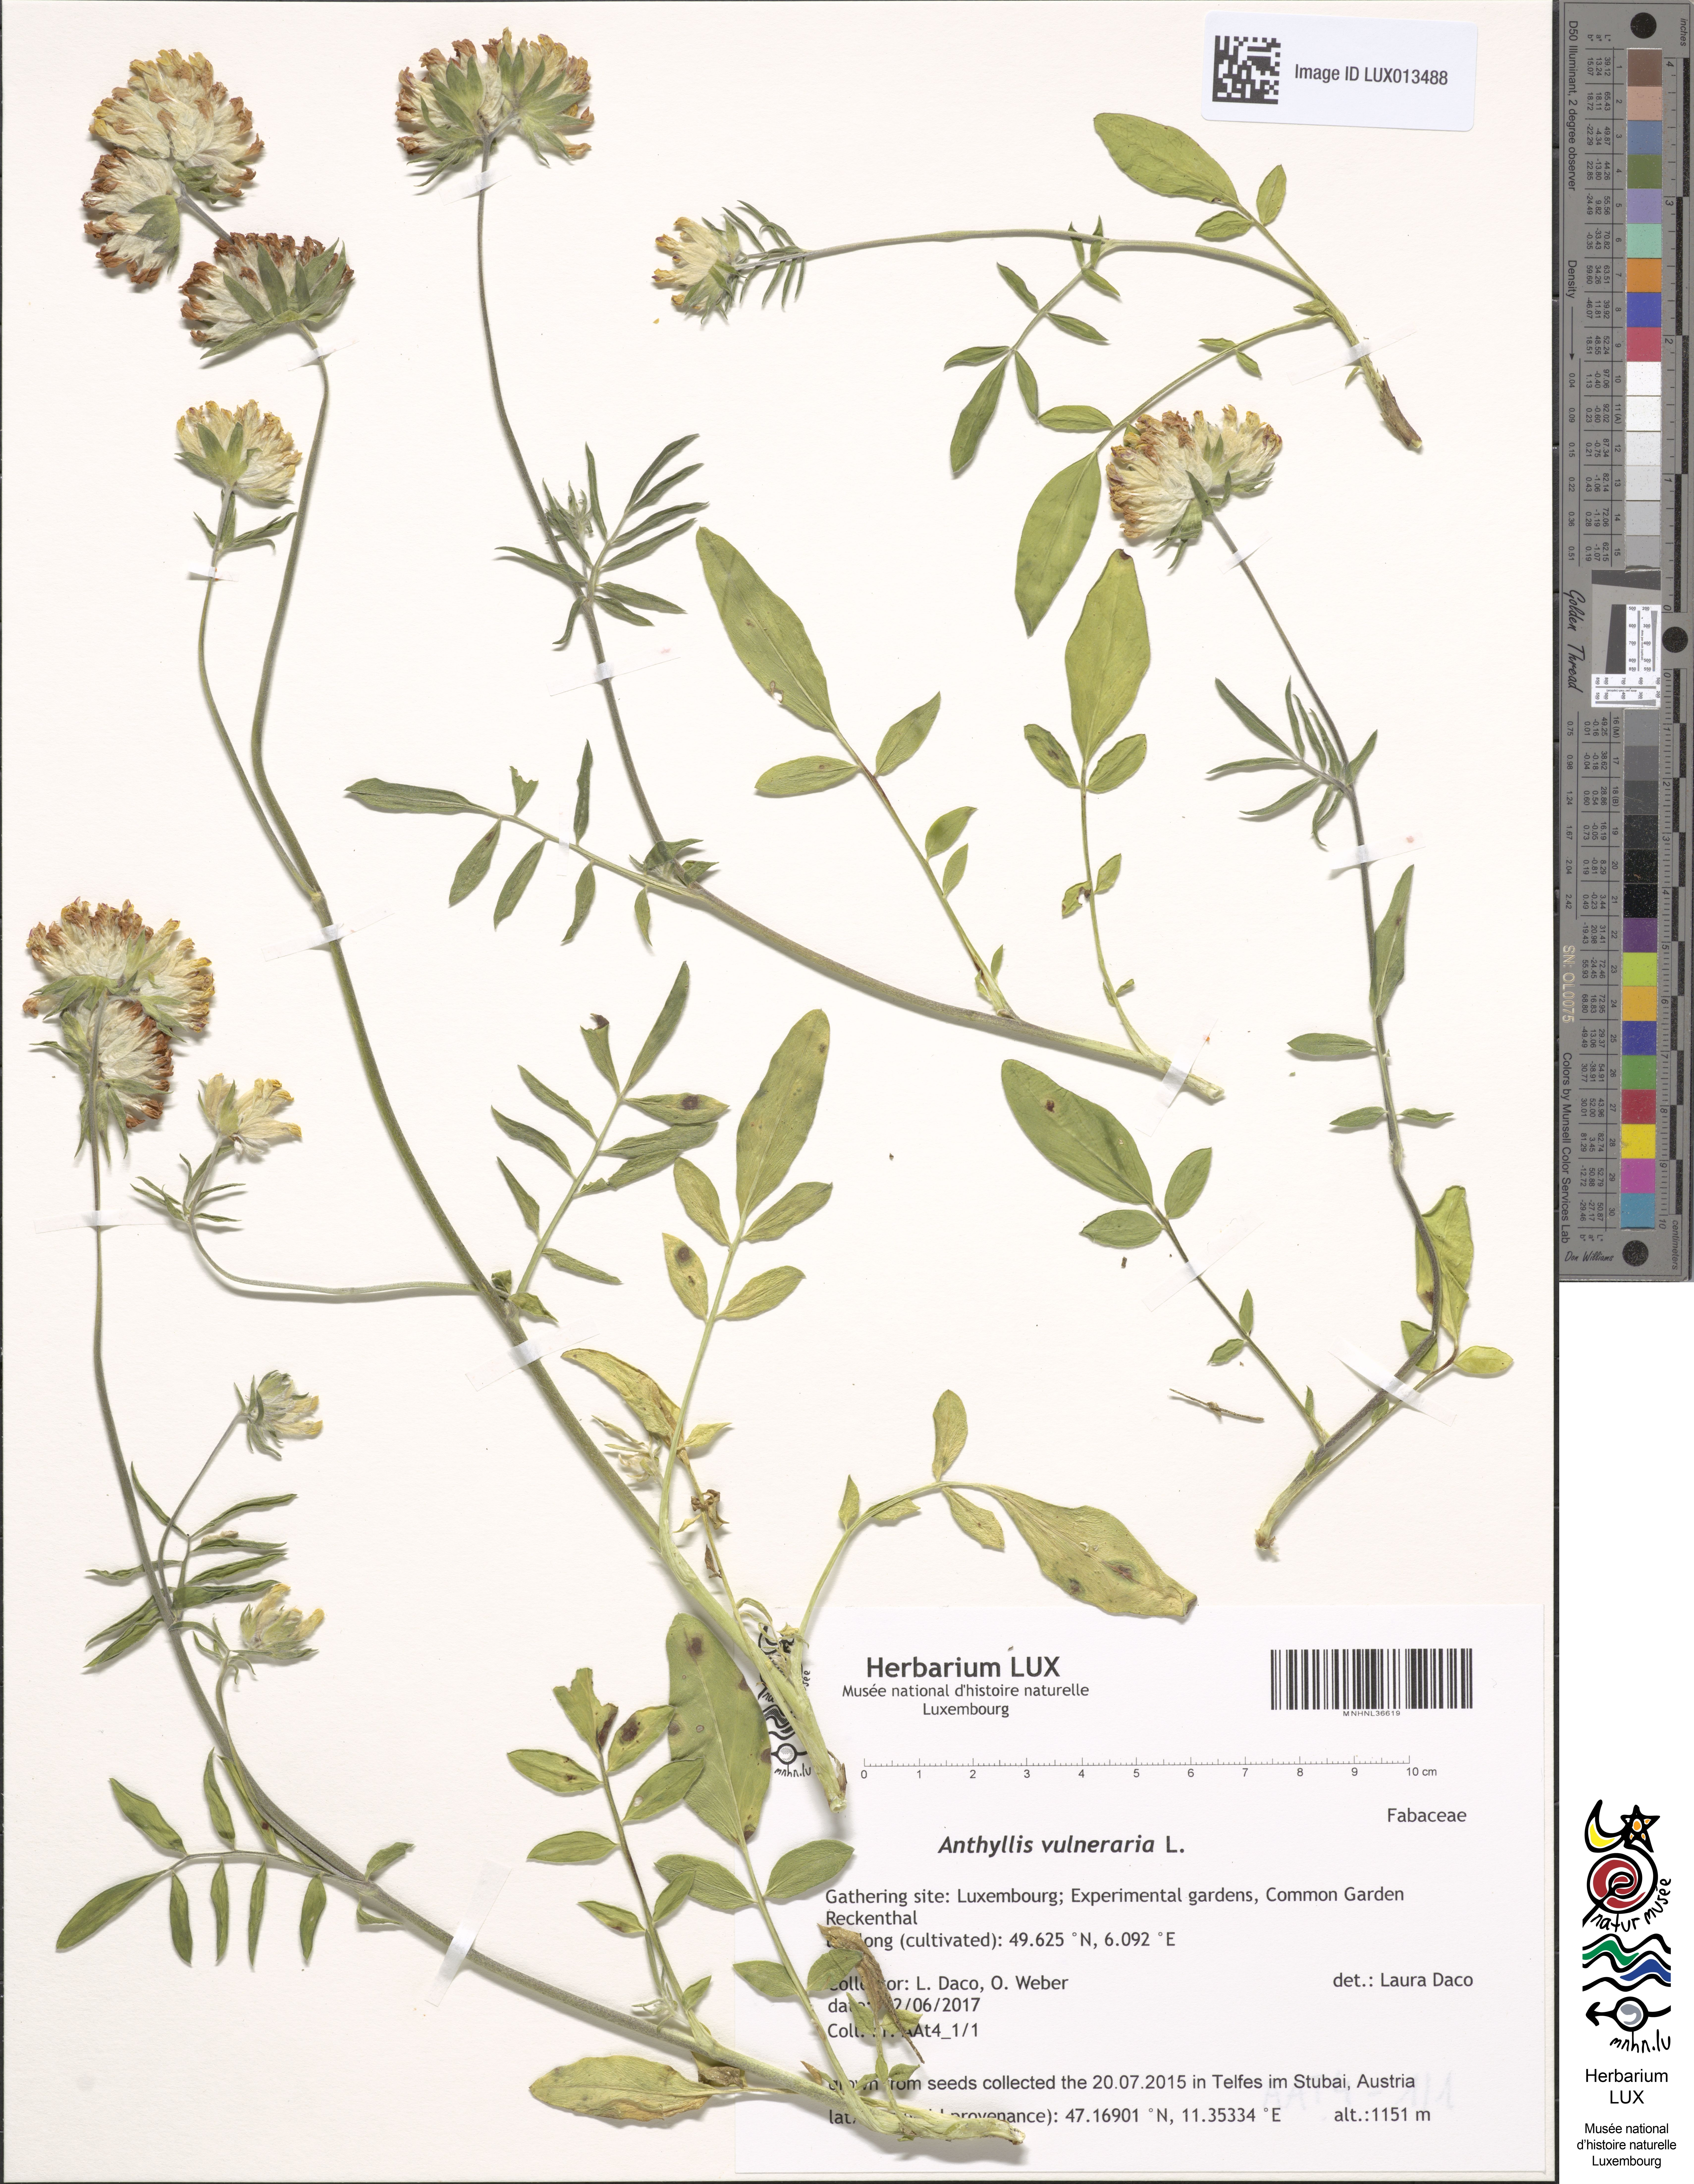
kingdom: Plantae
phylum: Tracheophyta
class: Magnoliopsida
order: Fabales
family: Fabaceae
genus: Anthyllis
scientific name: Anthyllis vulneraria
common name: Kidney vetch
